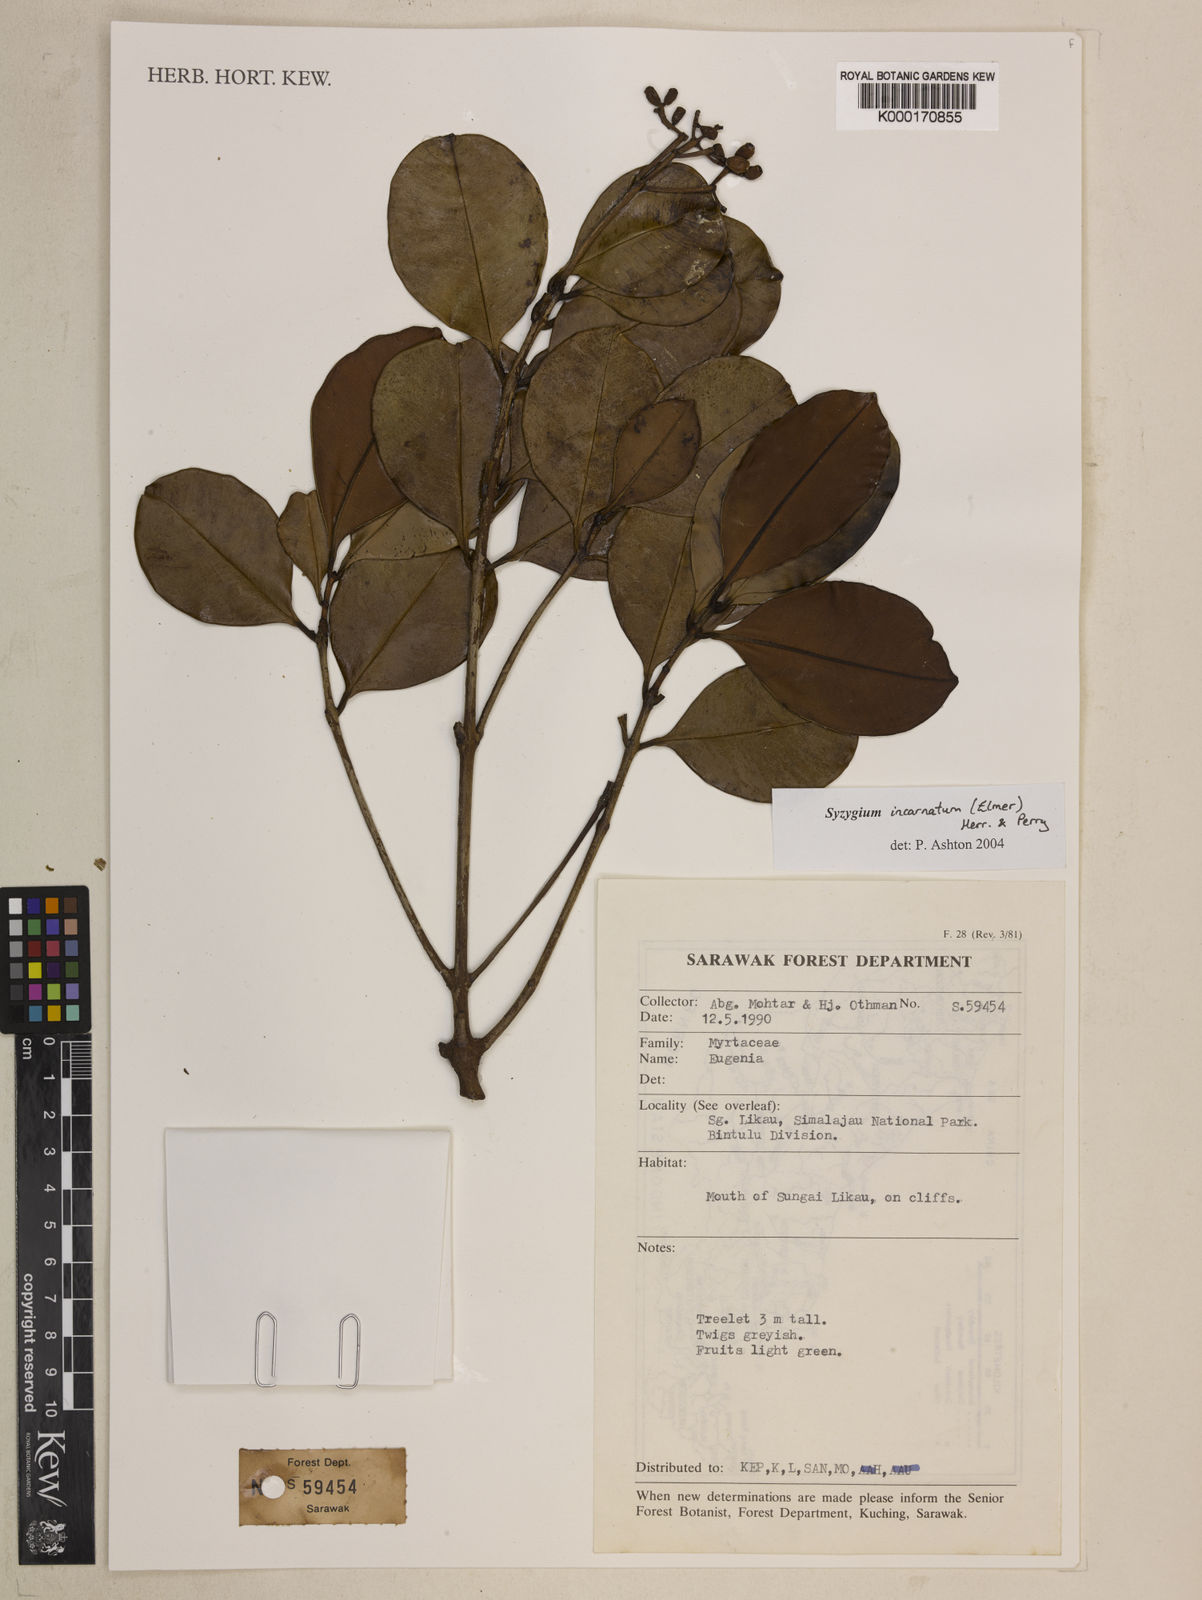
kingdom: Plantae
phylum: Tracheophyta
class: Magnoliopsida
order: Myrtales
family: Myrtaceae
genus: Syzygium
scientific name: Syzygium incarnatum
